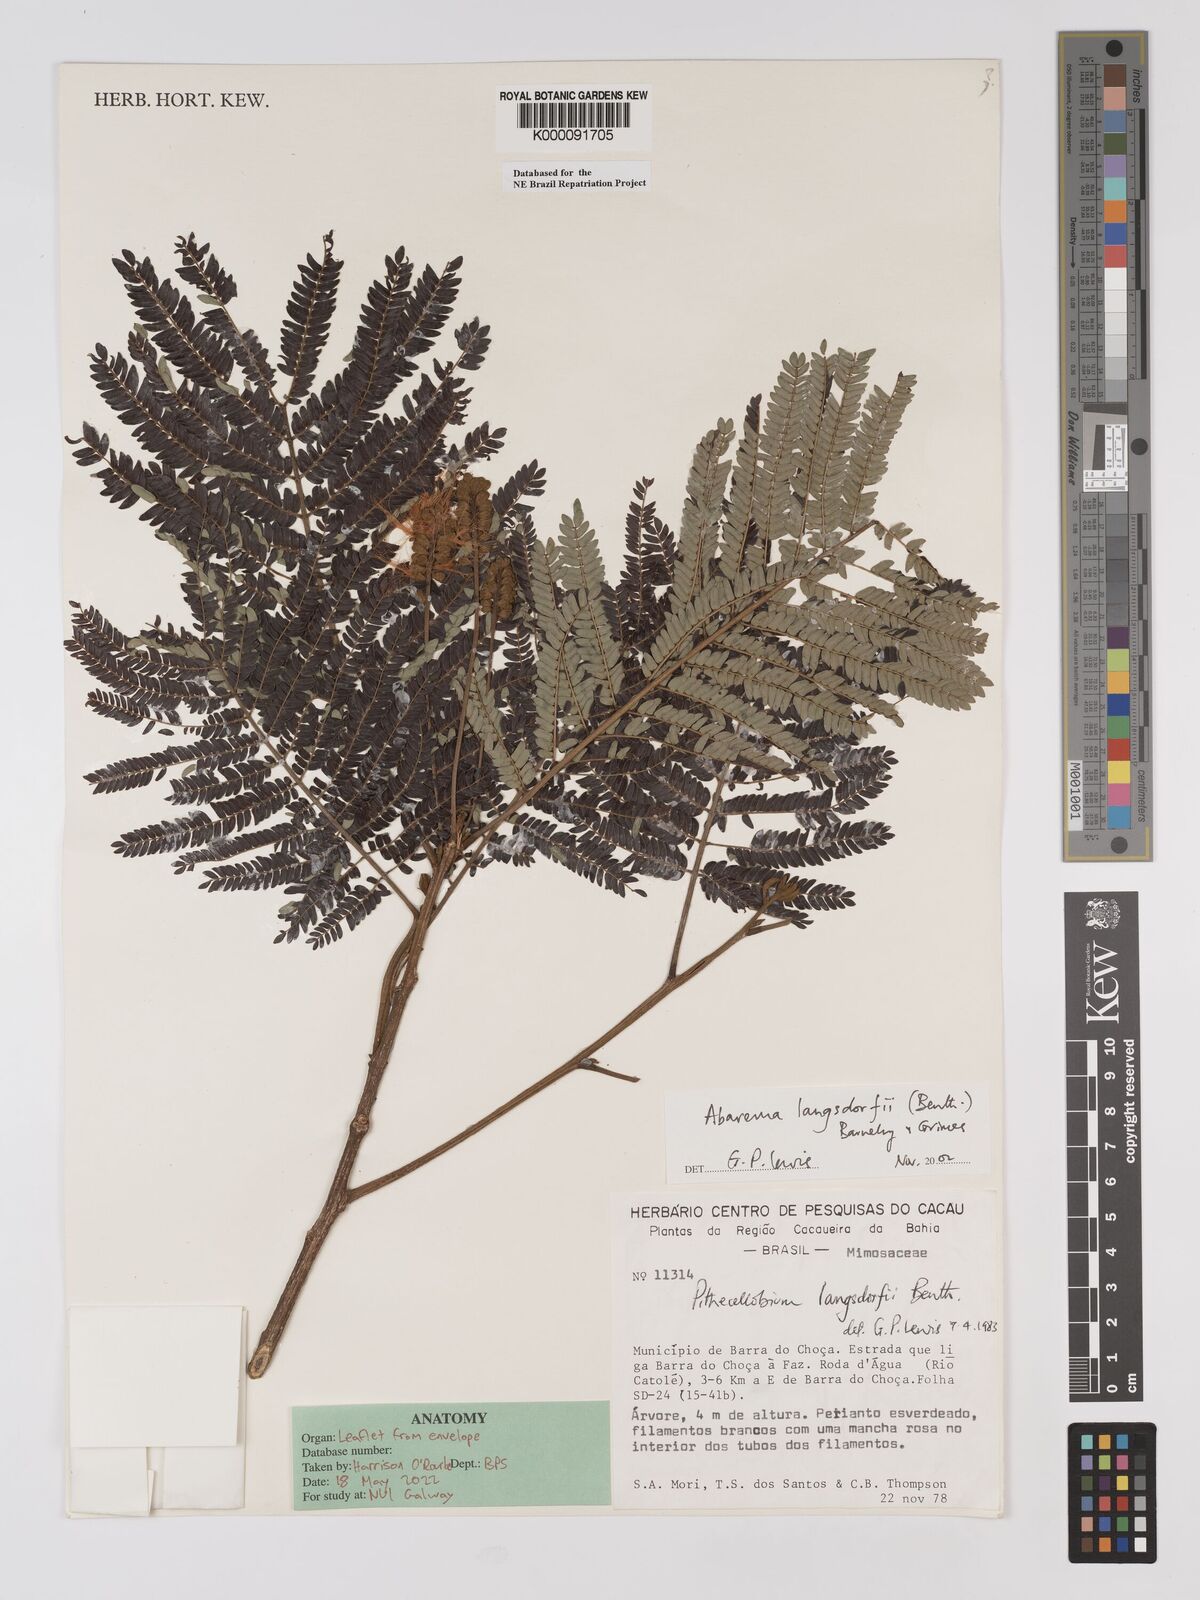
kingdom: Plantae
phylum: Tracheophyta
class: Magnoliopsida
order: Fabales
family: Fabaceae
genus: Jupunba
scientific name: Jupunba langsdorffii
